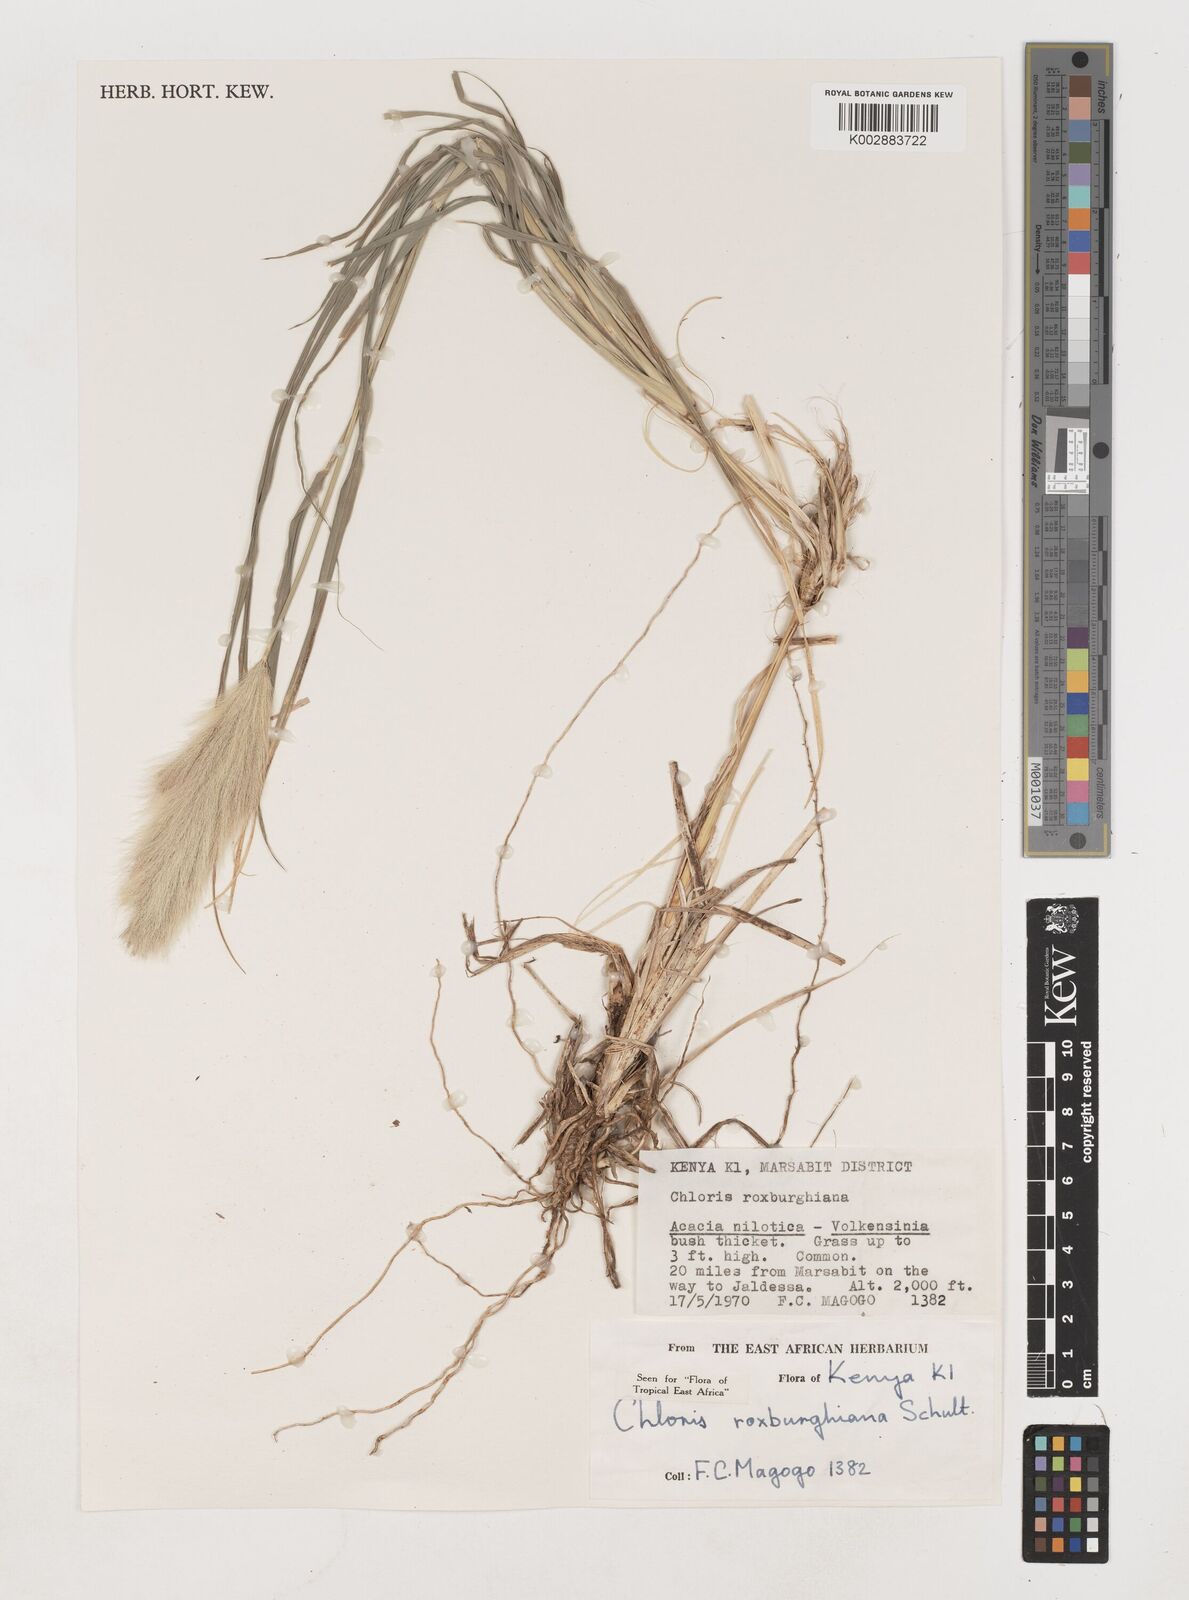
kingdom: Plantae
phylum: Tracheophyta
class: Liliopsida
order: Poales
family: Poaceae
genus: Tetrapogon
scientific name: Tetrapogon roxburghiana
